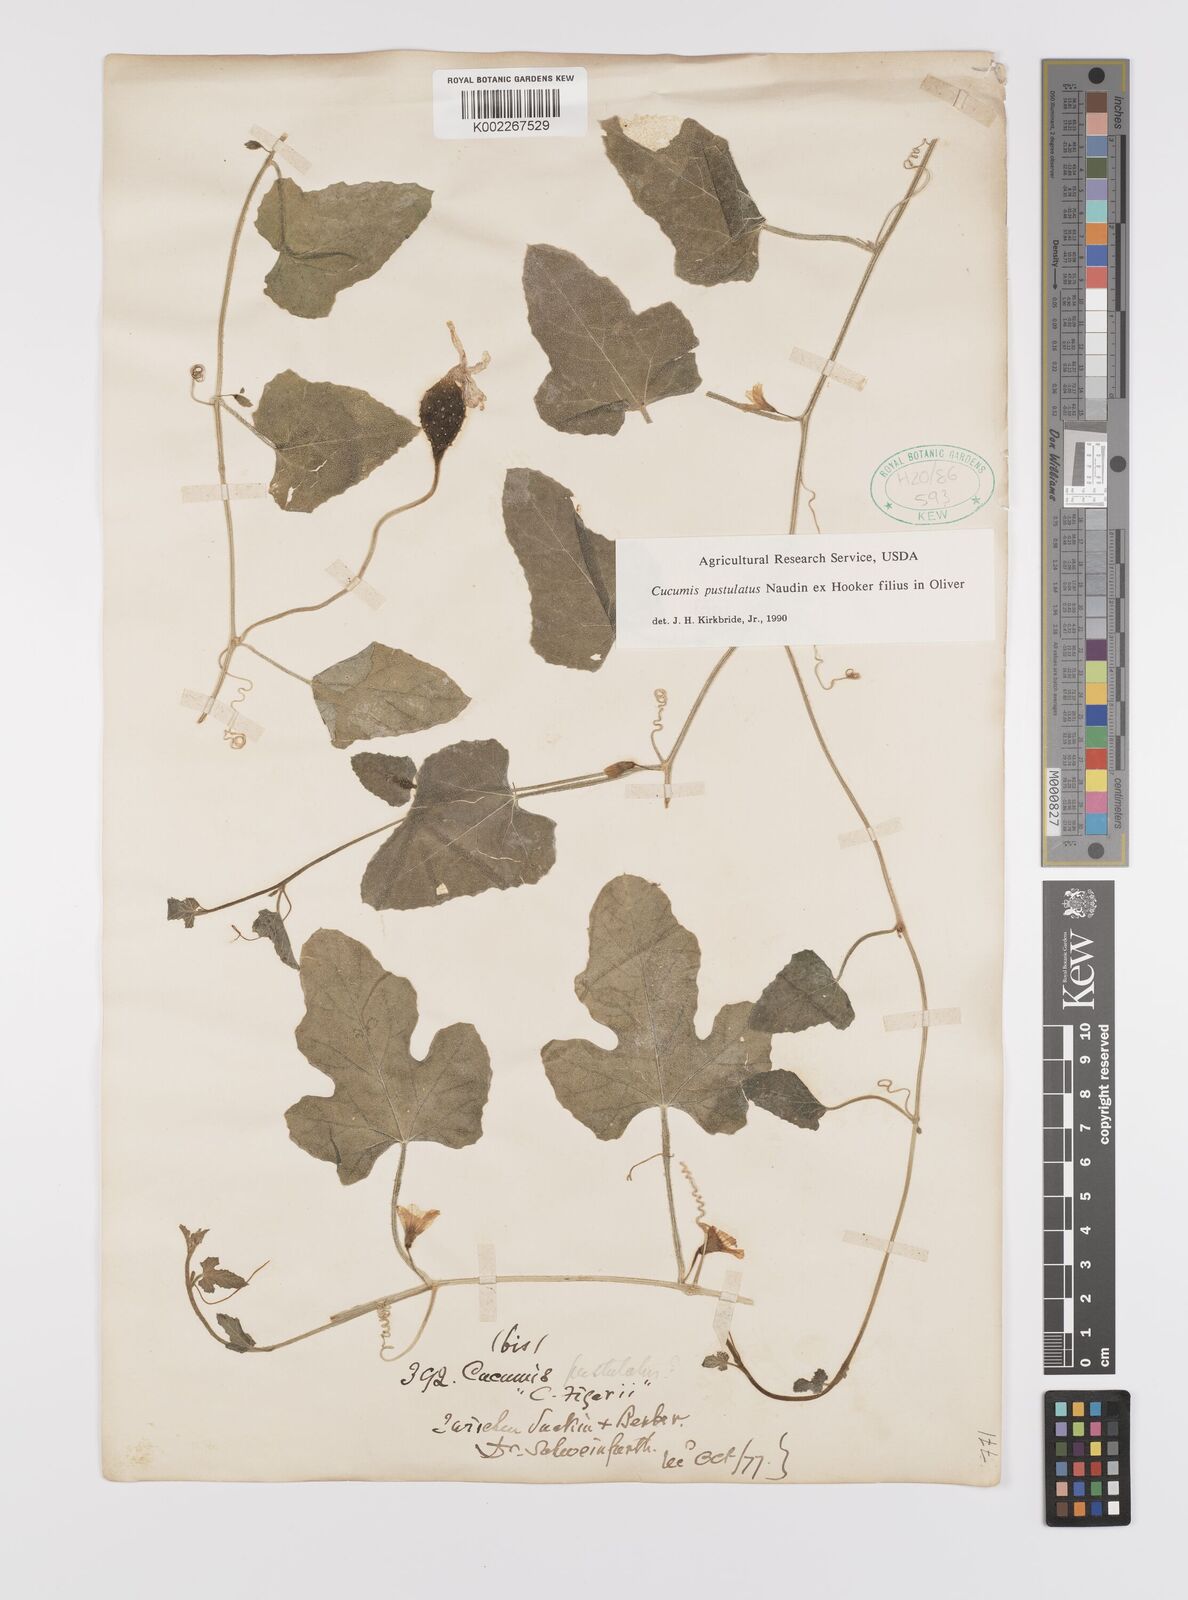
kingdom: Plantae
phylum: Tracheophyta
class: Magnoliopsida
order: Cucurbitales
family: Cucurbitaceae
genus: Cucumis
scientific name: Cucumis pustulatus
